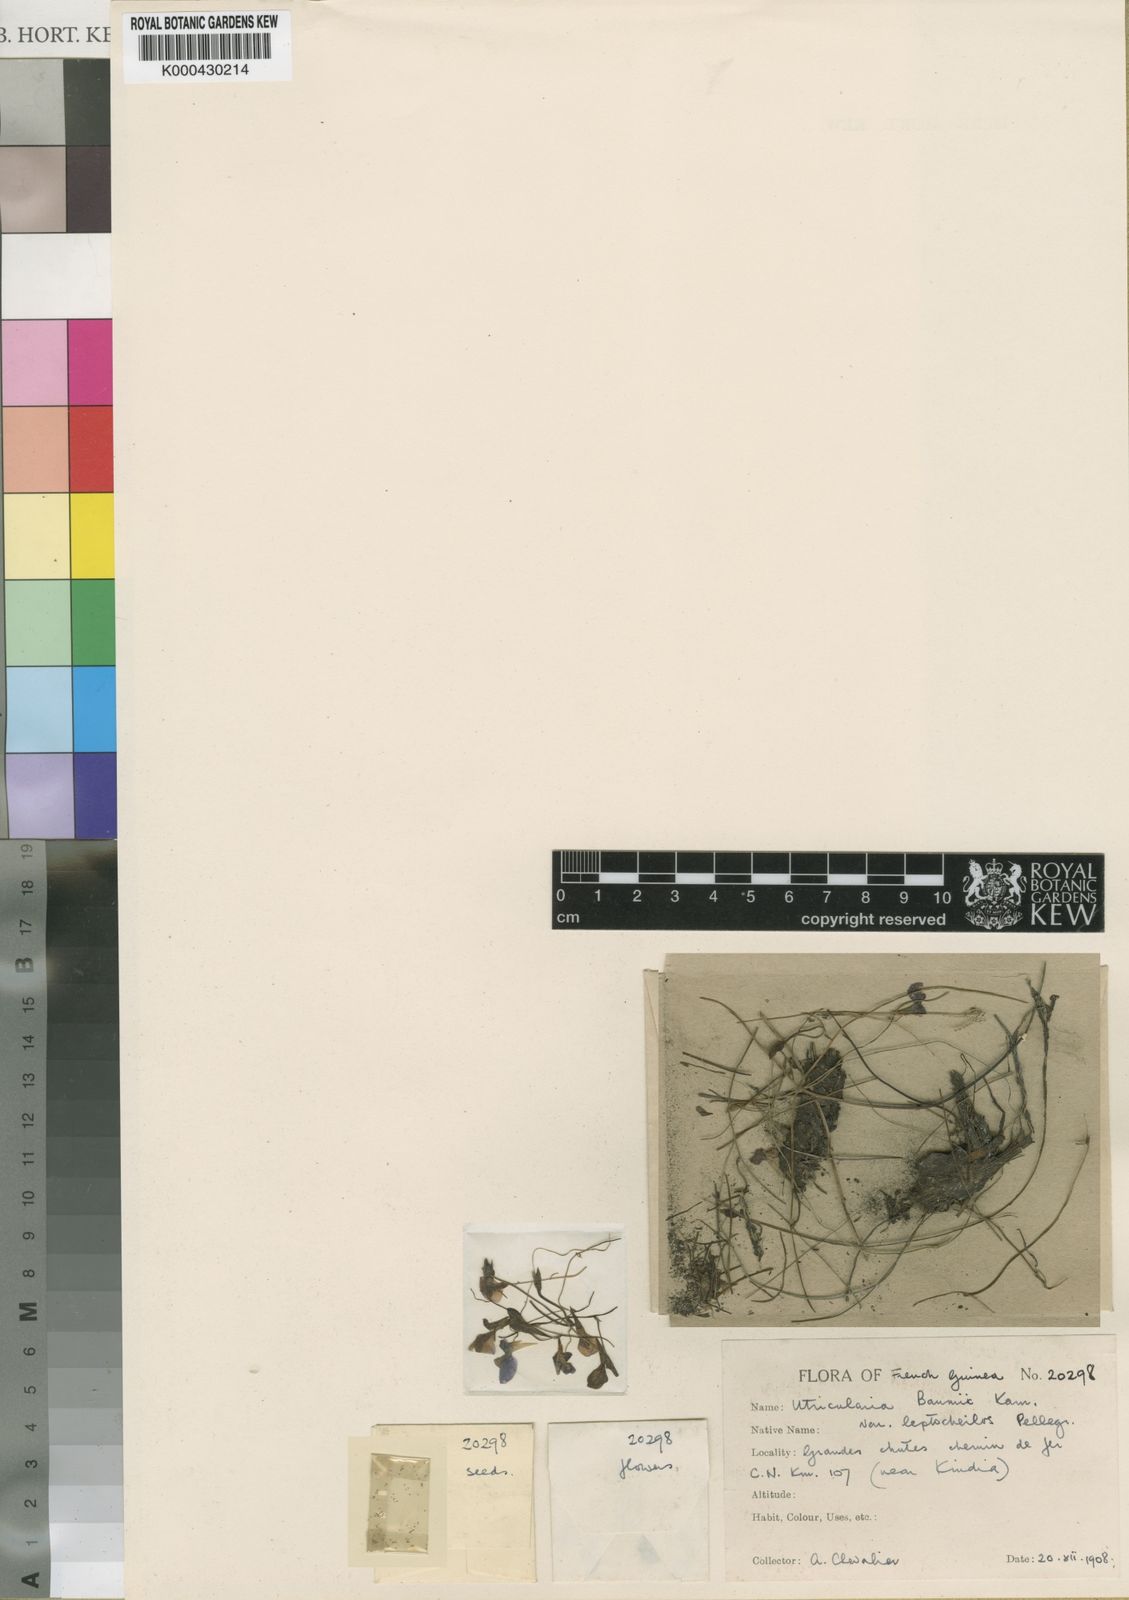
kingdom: Plantae
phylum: Tracheophyta
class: Magnoliopsida
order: Lamiales
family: Lentibulariaceae
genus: Utricularia
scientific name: Utricularia spiralis
